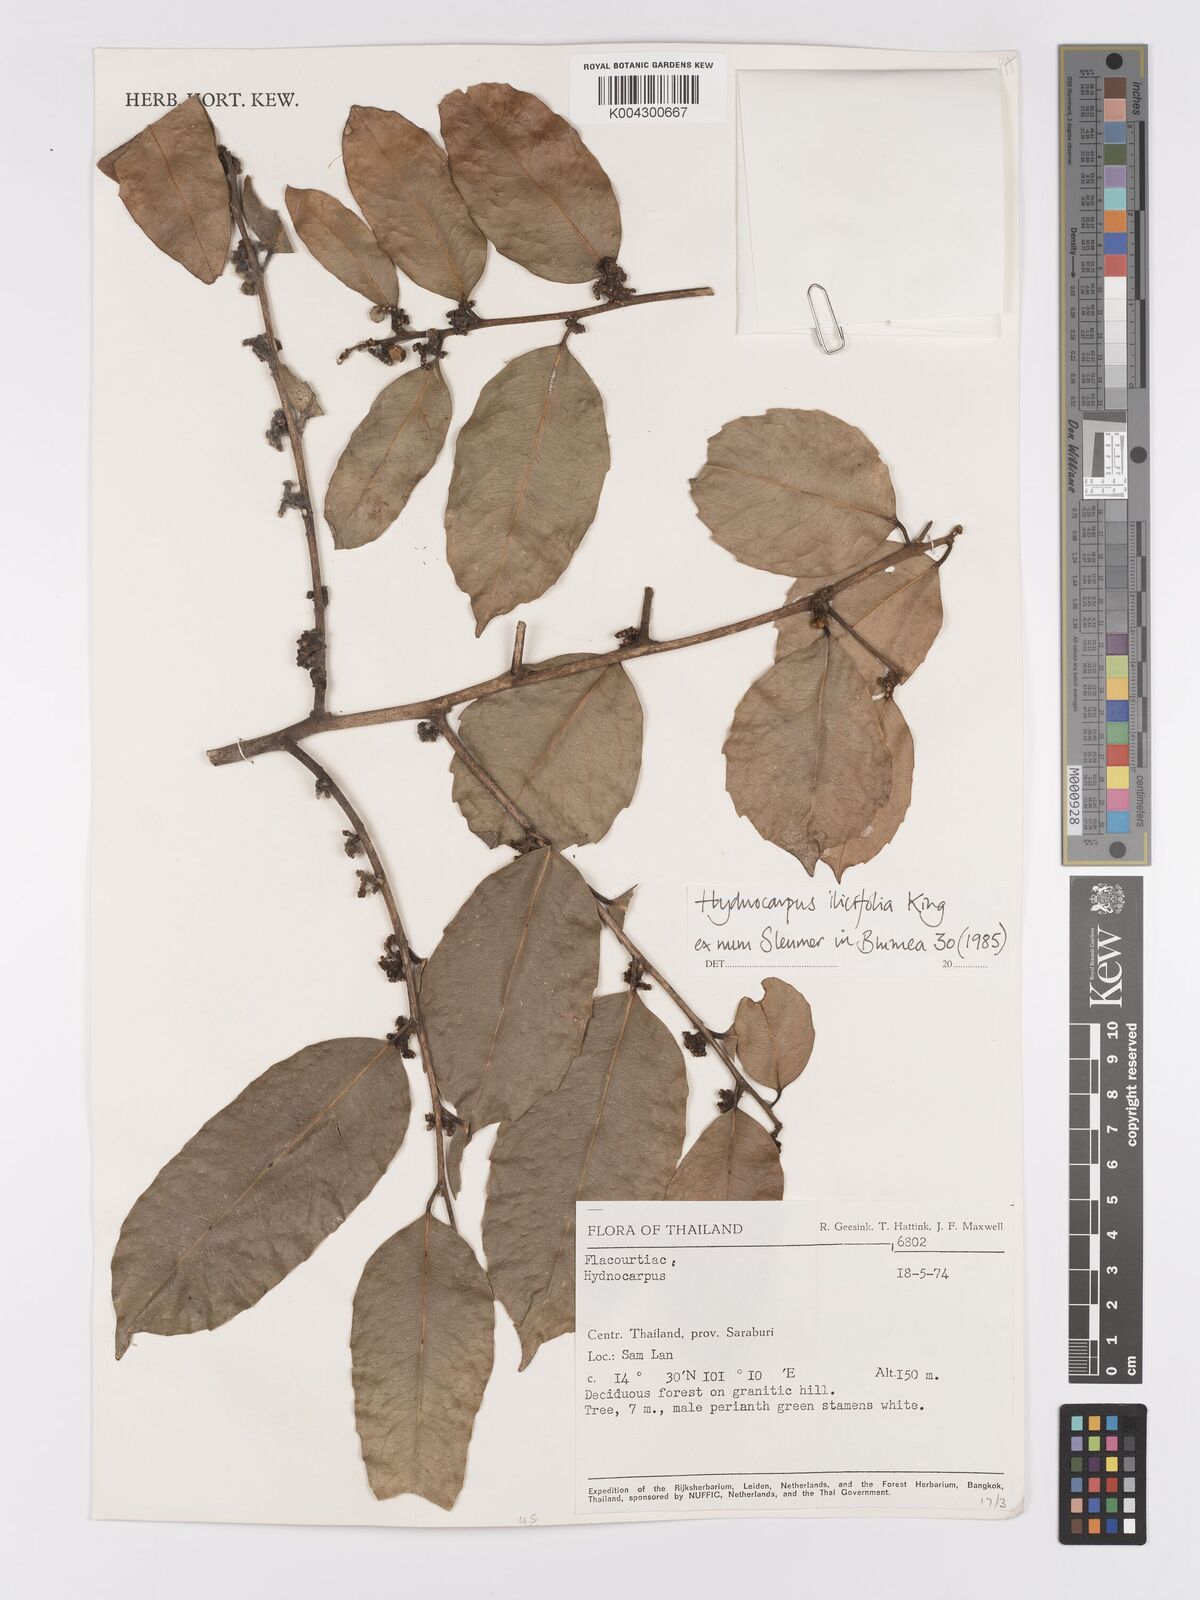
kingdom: Plantae
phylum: Tracheophyta
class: Magnoliopsida
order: Malpighiales
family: Achariaceae
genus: Hydnocarpus
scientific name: Hydnocarpus ilicifolius
